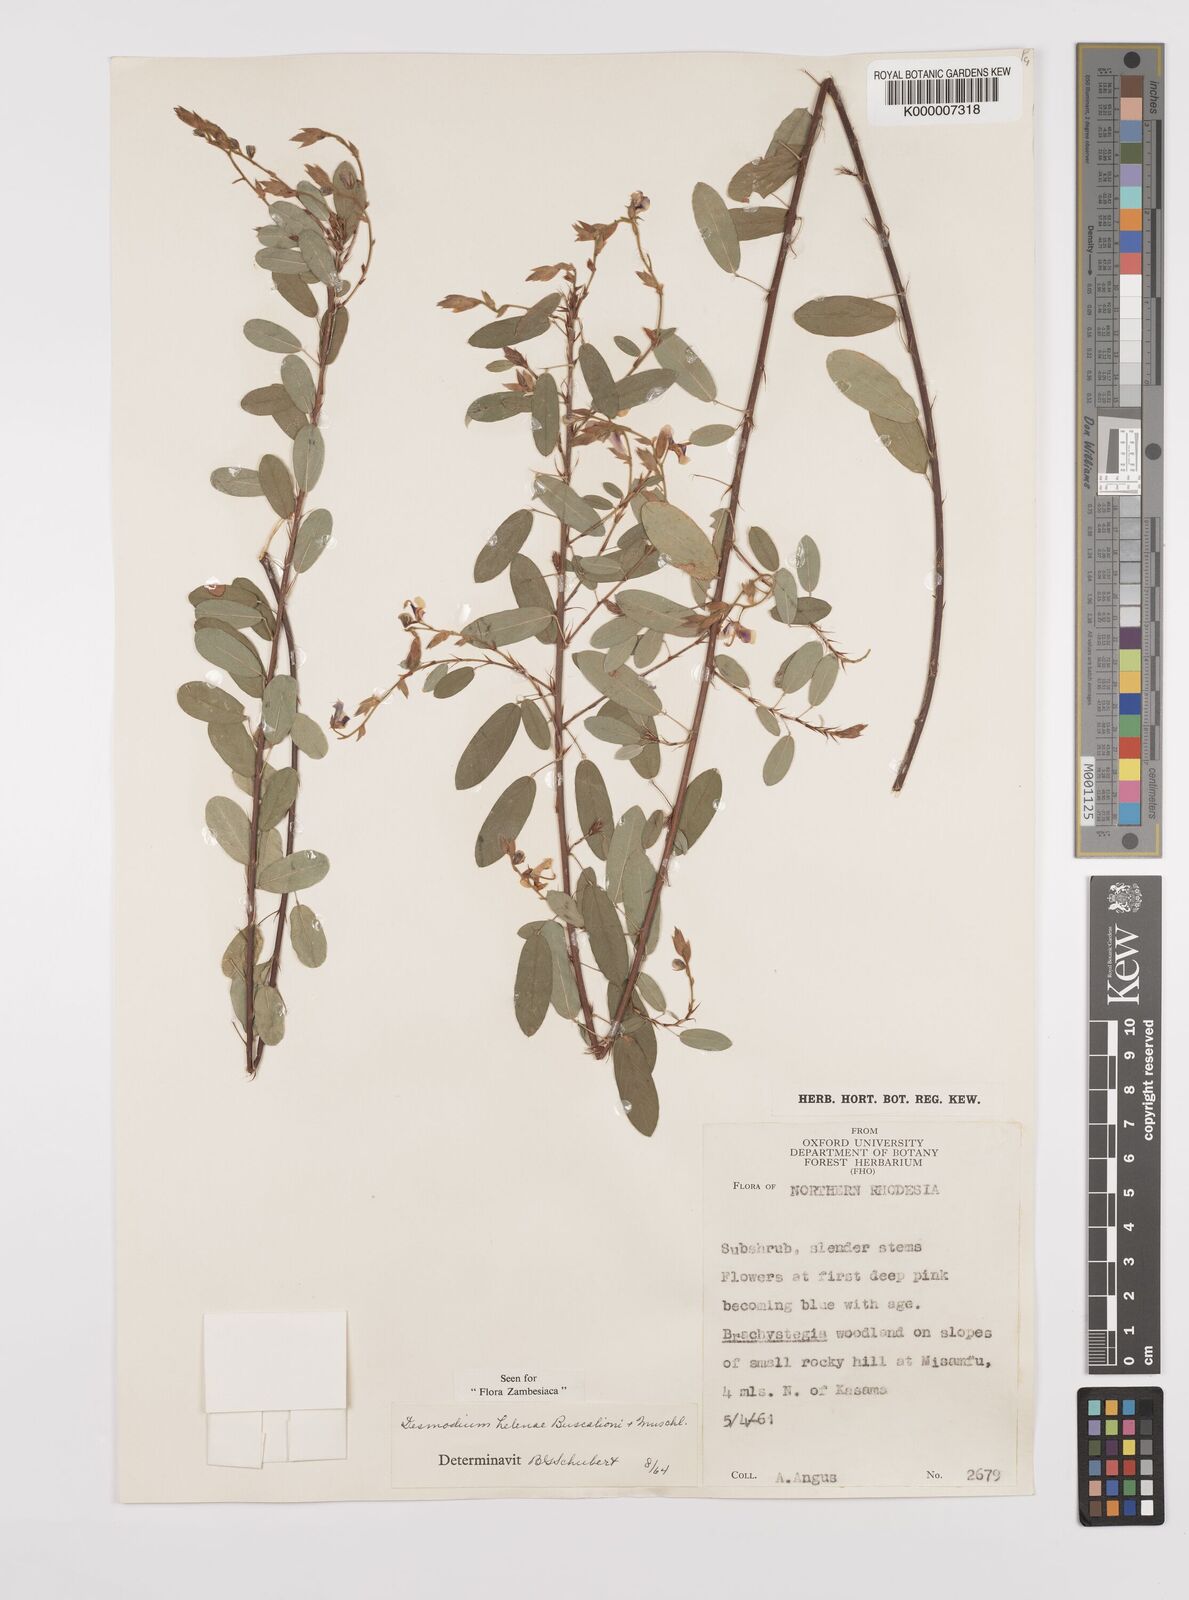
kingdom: Plantae
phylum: Tracheophyta
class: Magnoliopsida
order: Fabales
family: Fabaceae
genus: Grona
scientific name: Grona helenae
